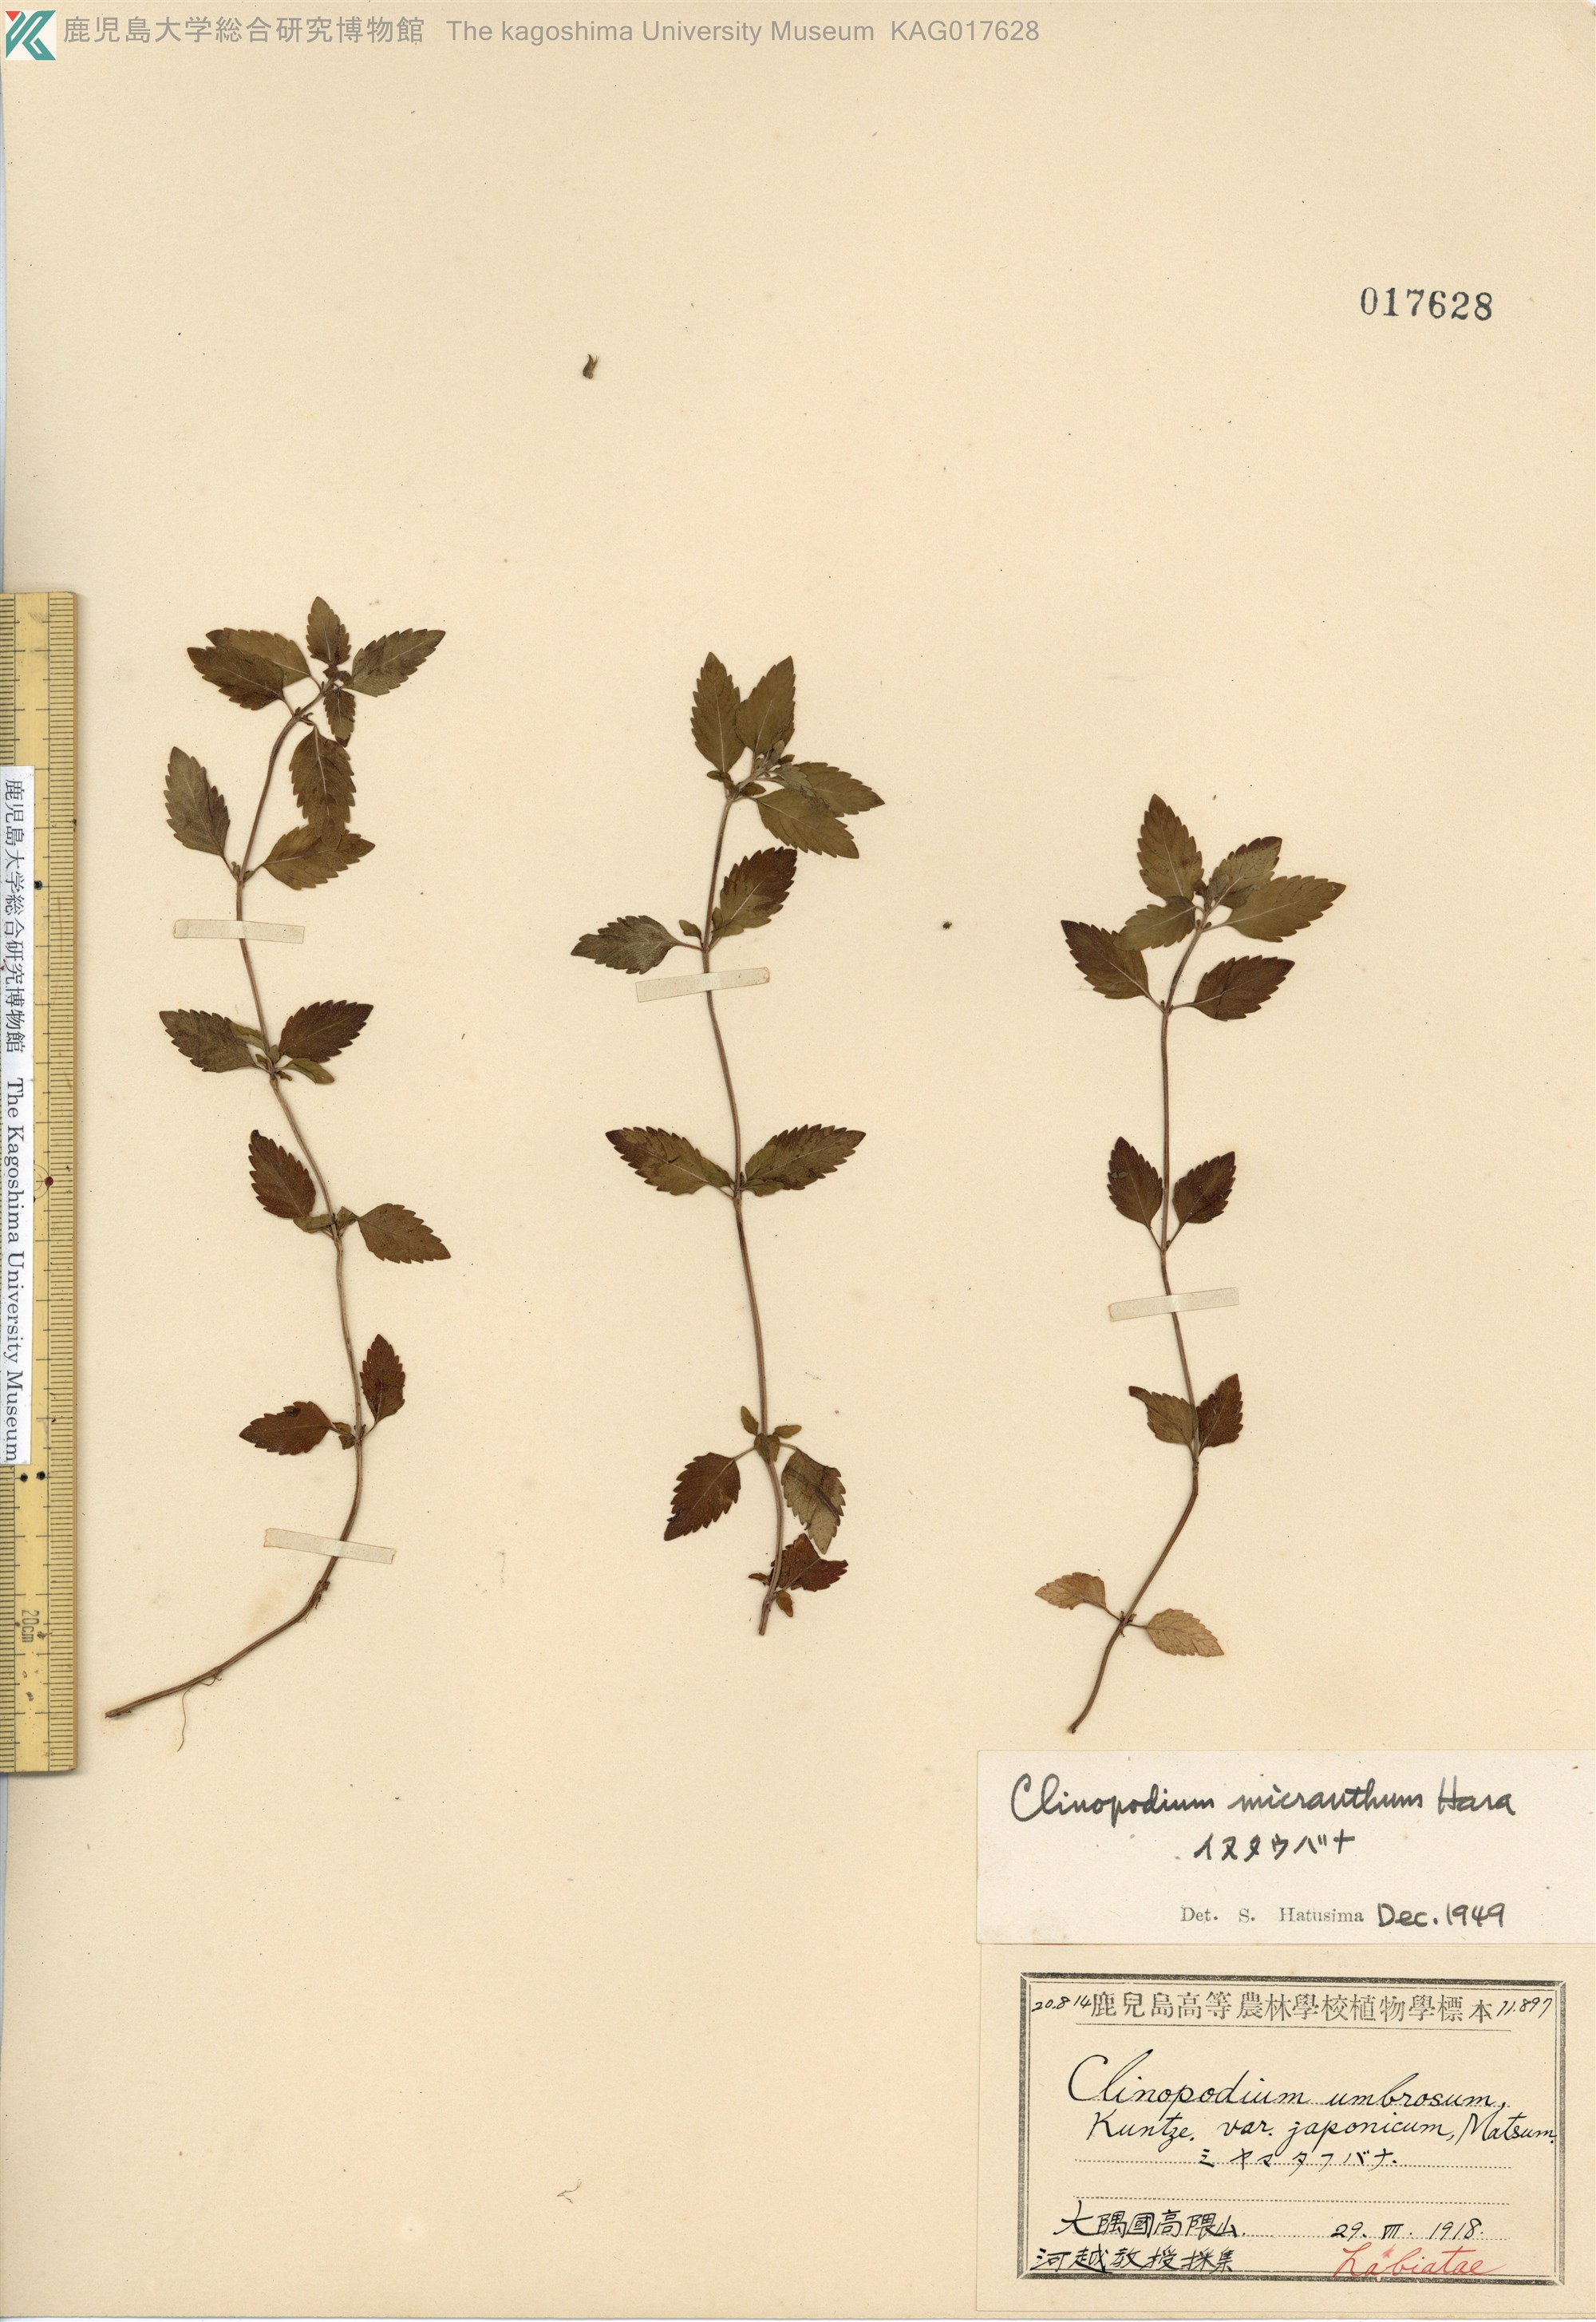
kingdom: Plantae
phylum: Tracheophyta
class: Magnoliopsida
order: Lamiales
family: Lamiaceae
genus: Clinopodium
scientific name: Clinopodium micranthum
